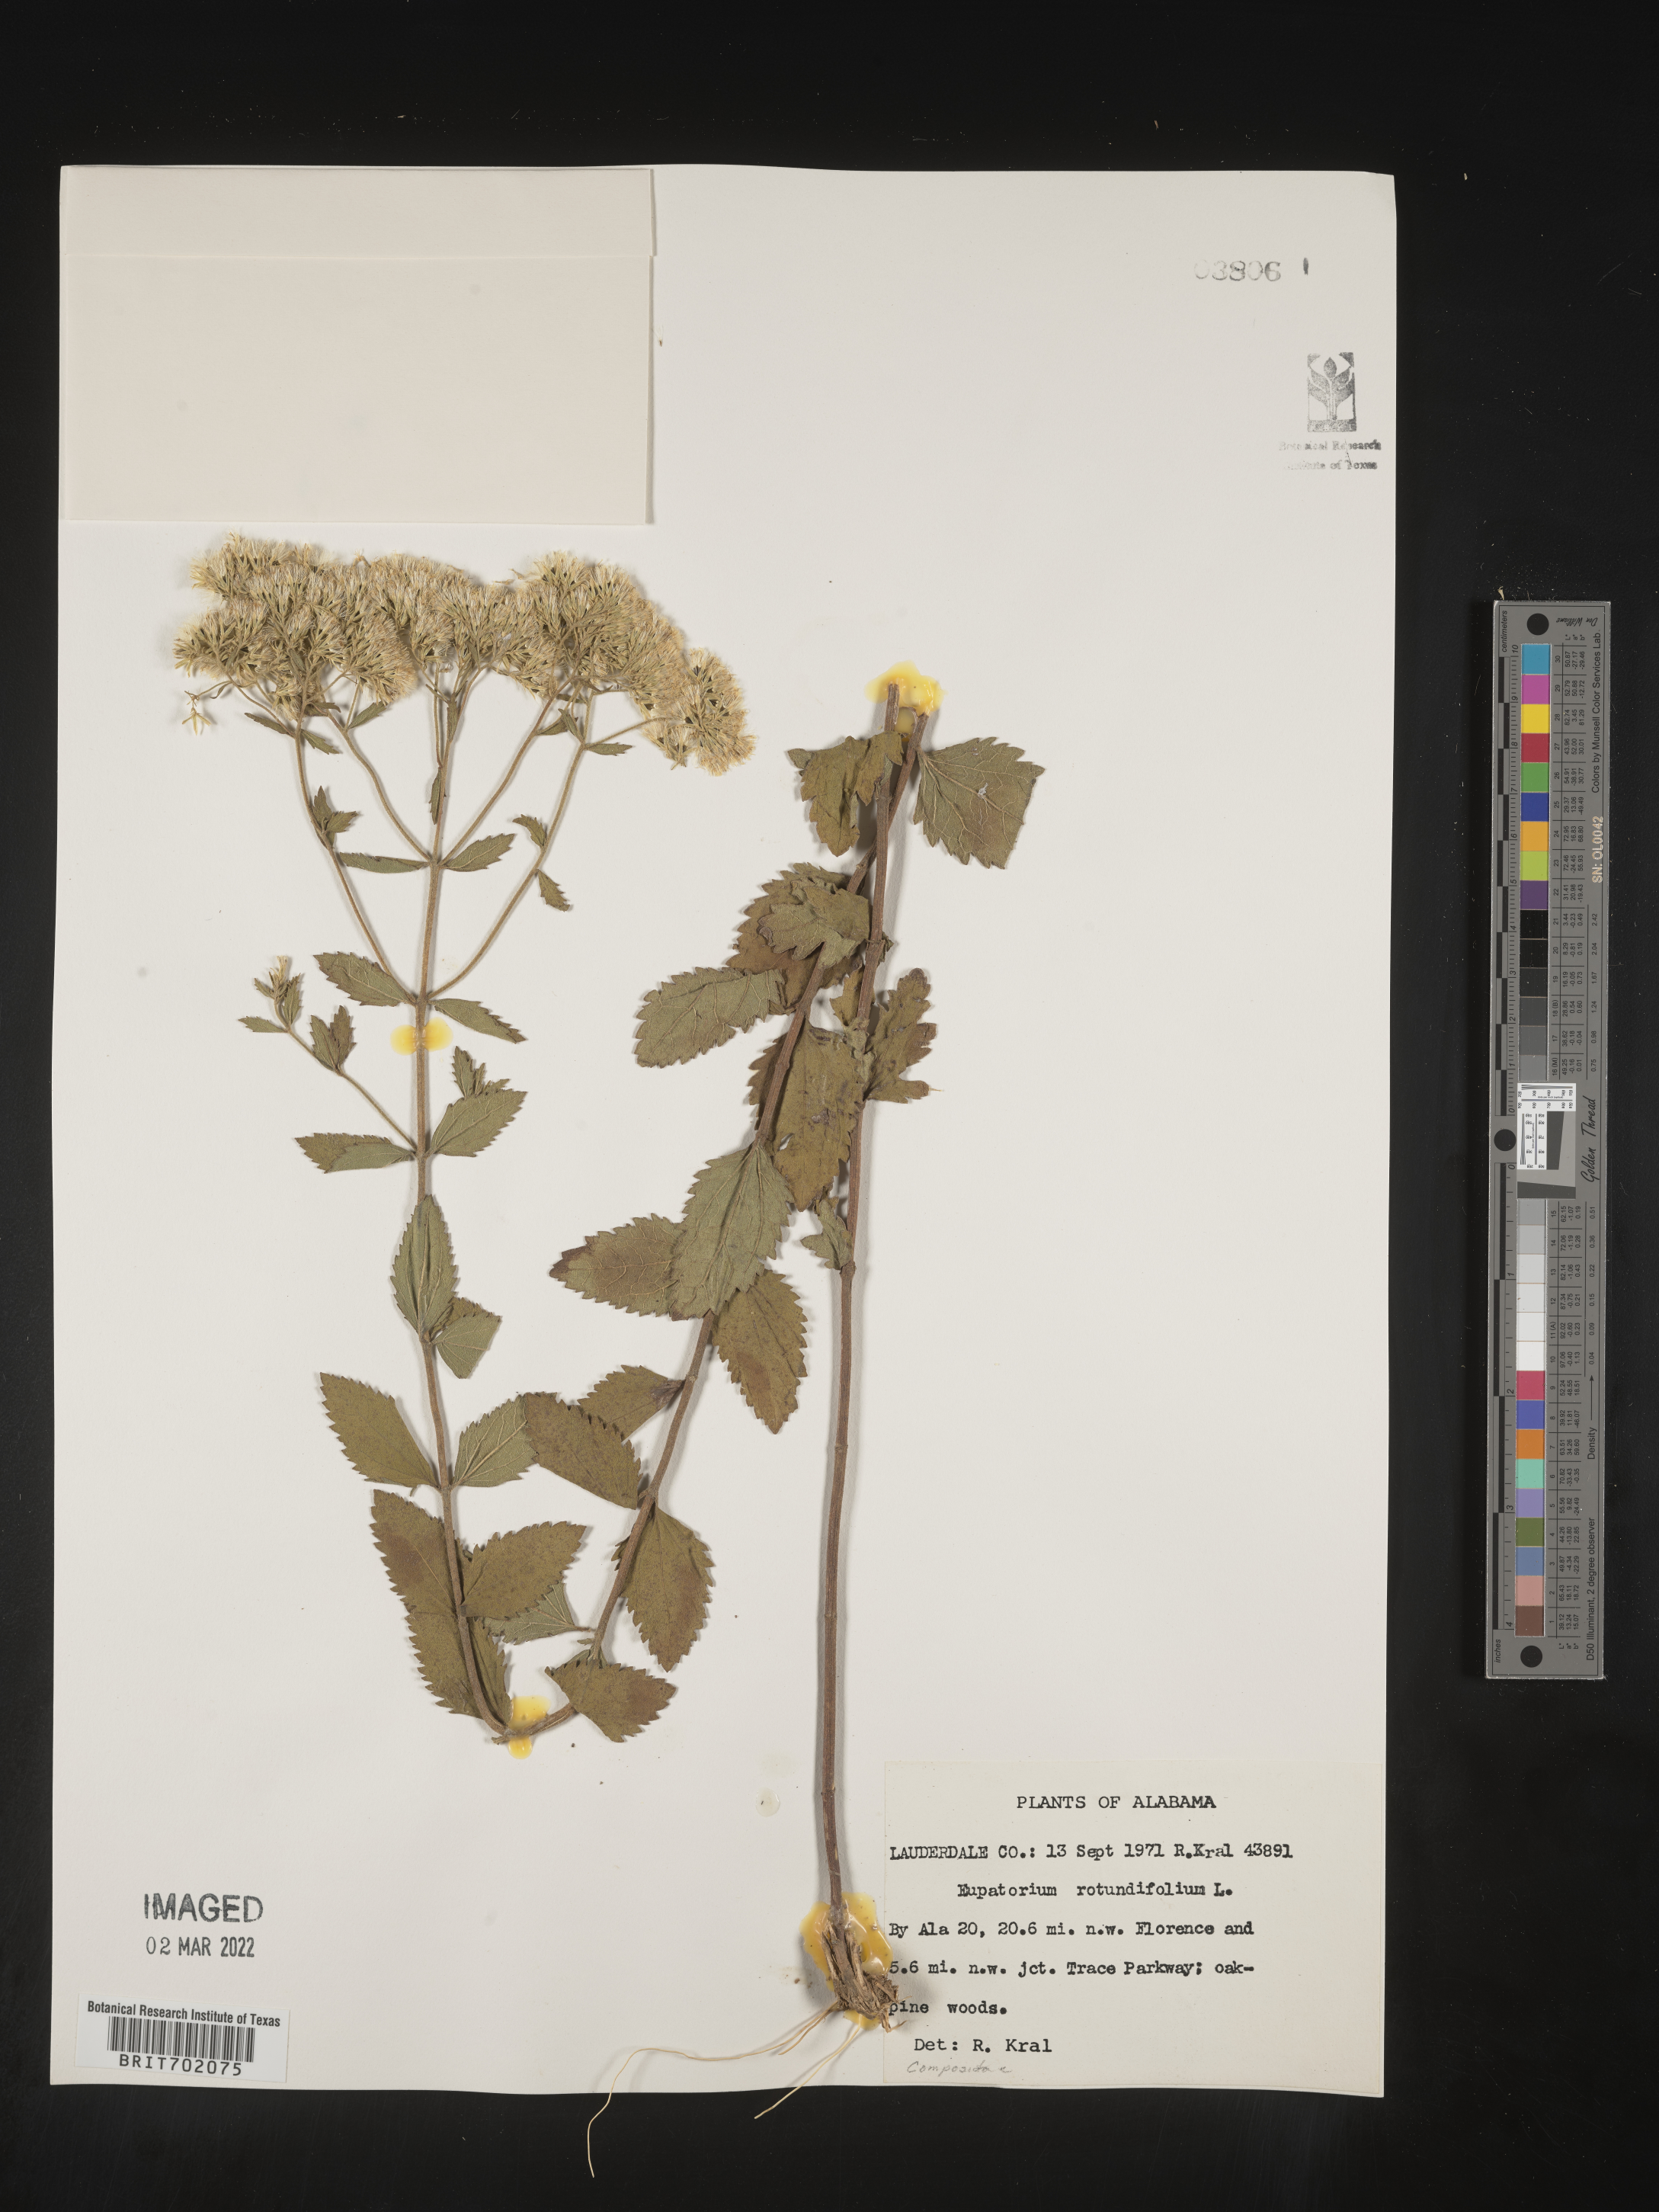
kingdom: Plantae
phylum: Tracheophyta
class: Magnoliopsida
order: Asterales
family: Asteraceae
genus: Eupatorium
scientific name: Eupatorium rotundifolium
